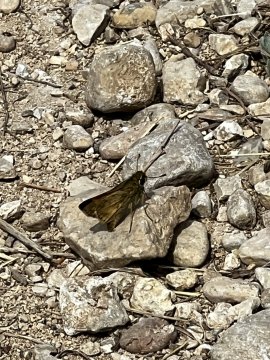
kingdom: Animalia
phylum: Arthropoda
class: Insecta
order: Lepidoptera
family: Hesperiidae
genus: Atalopedes
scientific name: Atalopedes campestris
